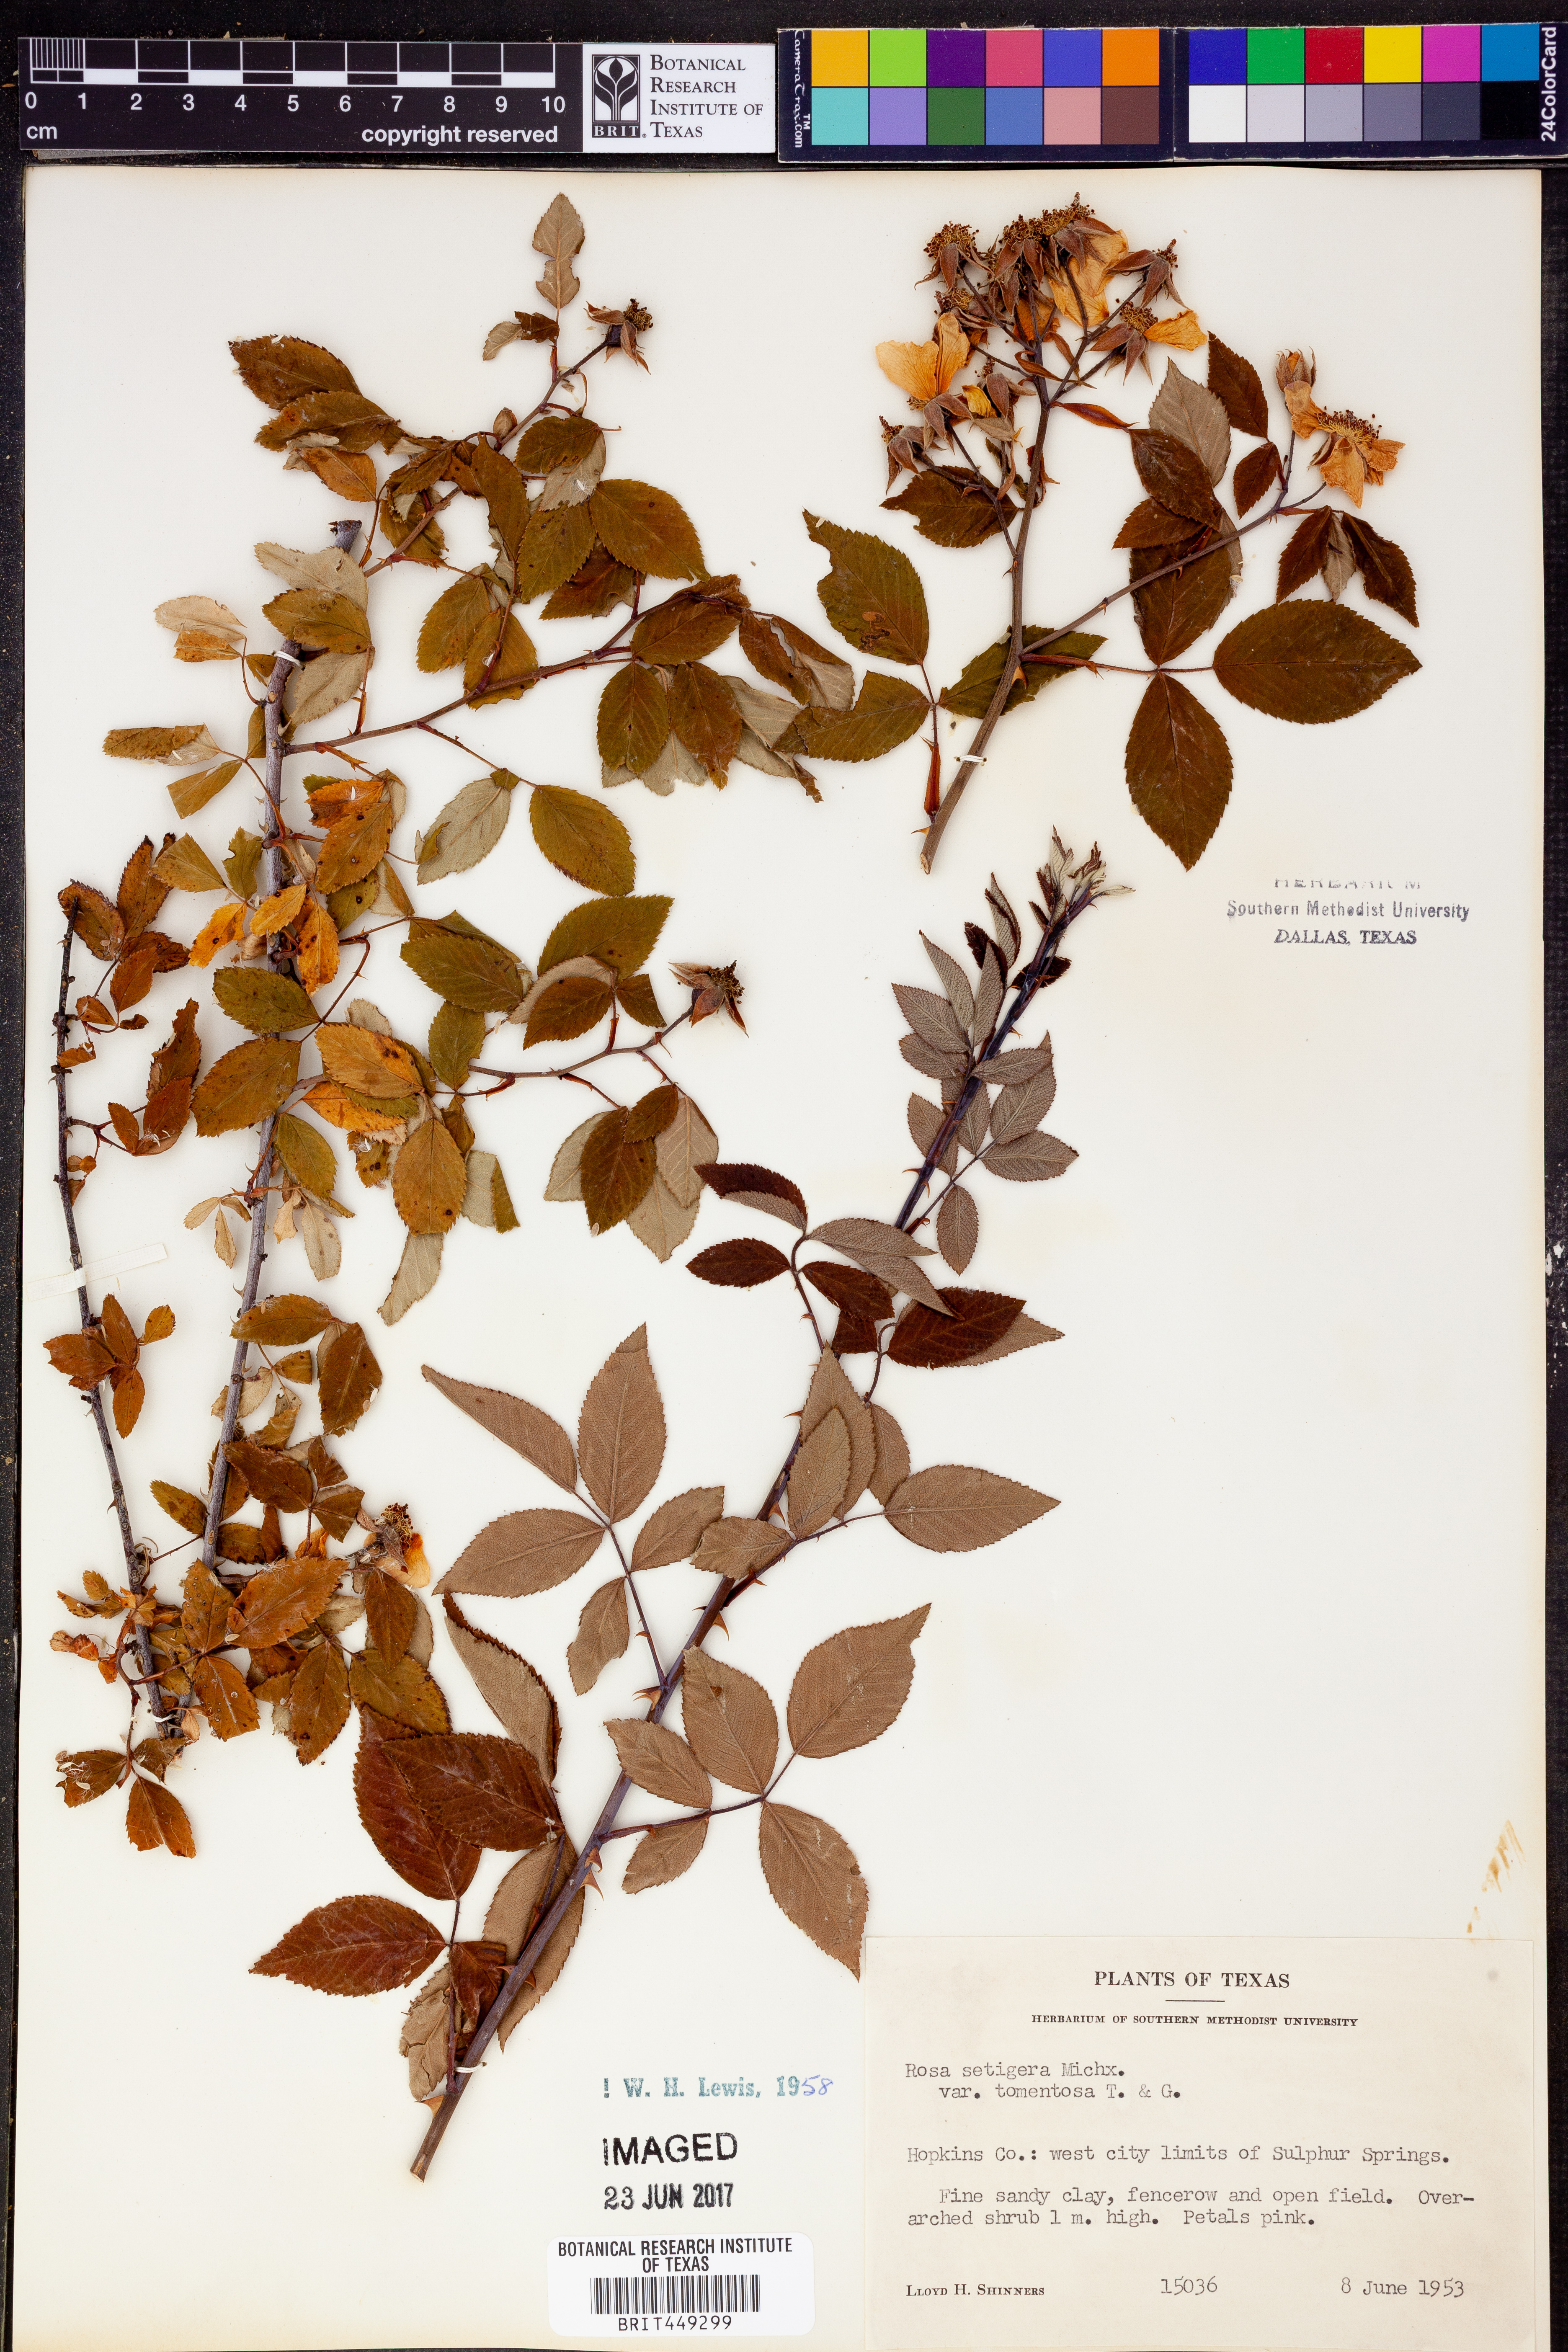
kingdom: Plantae
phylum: Tracheophyta
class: Magnoliopsida
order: Rosales
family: Rosaceae
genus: Rosa
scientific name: Rosa setigera
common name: Prairie rose
